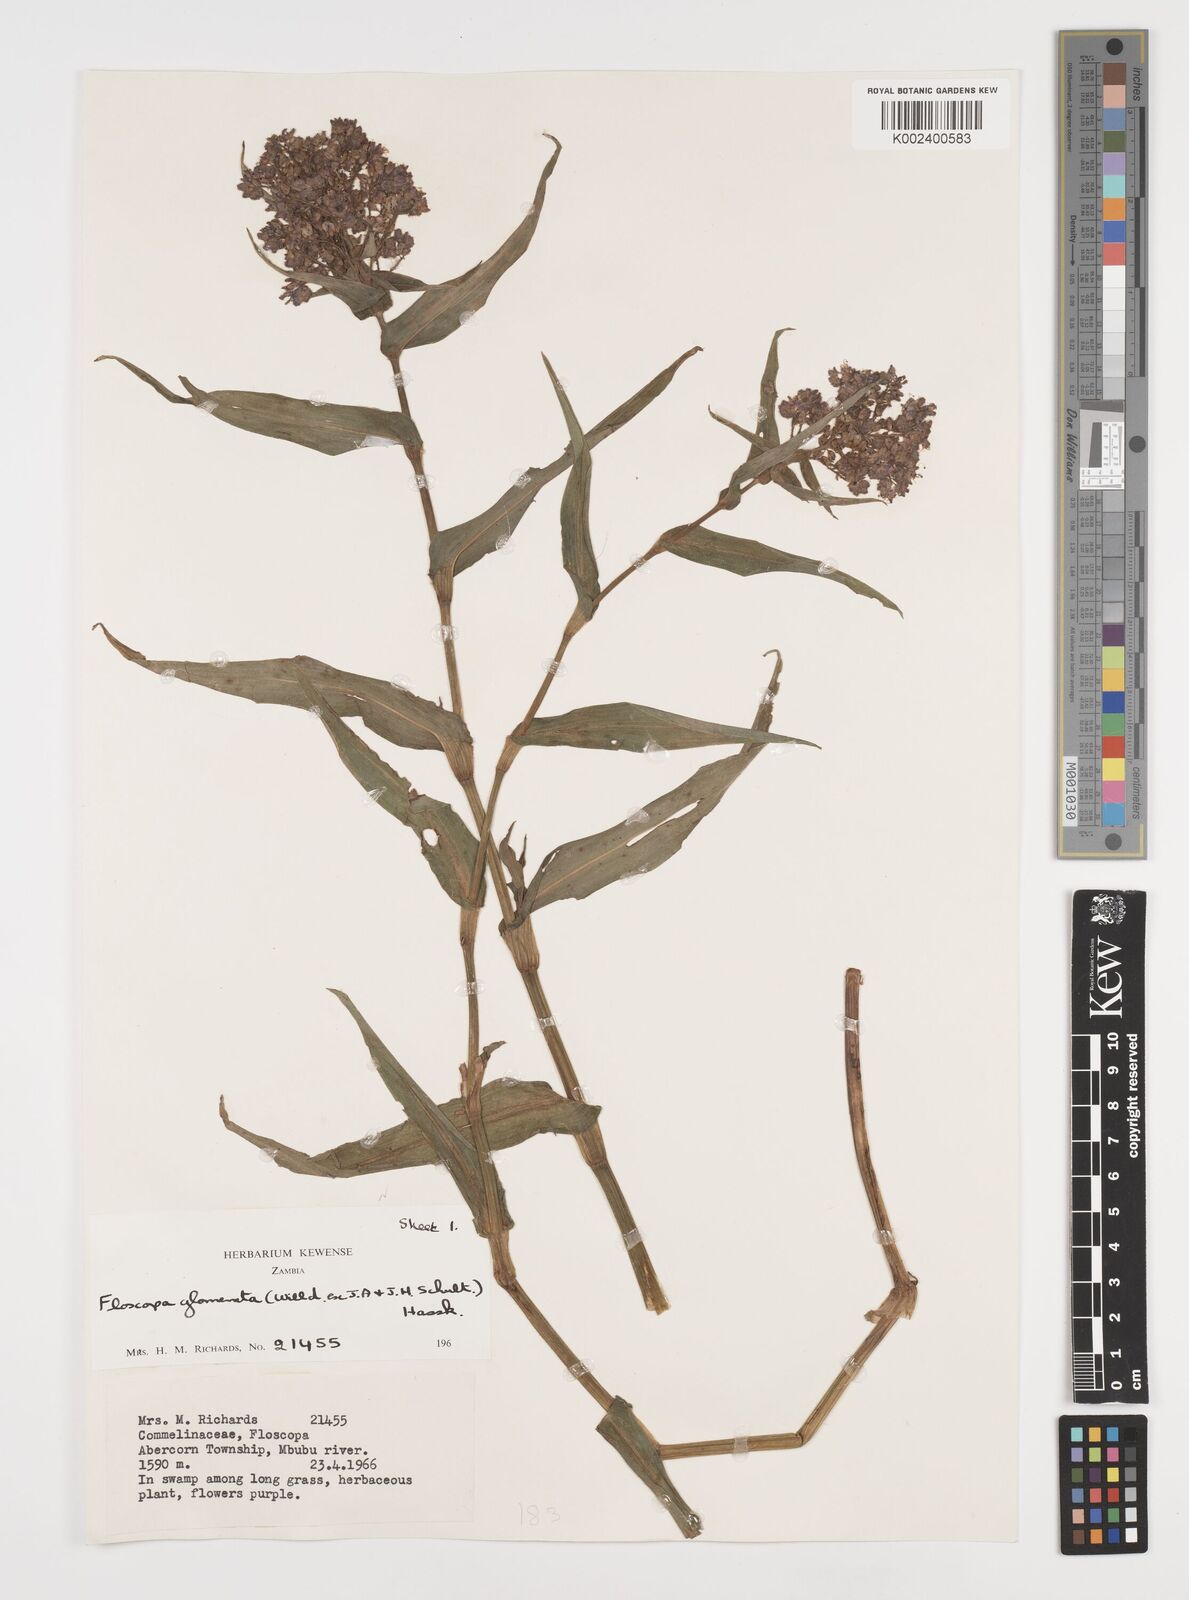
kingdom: Plantae
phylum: Tracheophyta
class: Liliopsida
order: Commelinales
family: Commelinaceae
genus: Floscopa
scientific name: Floscopa glomerata
